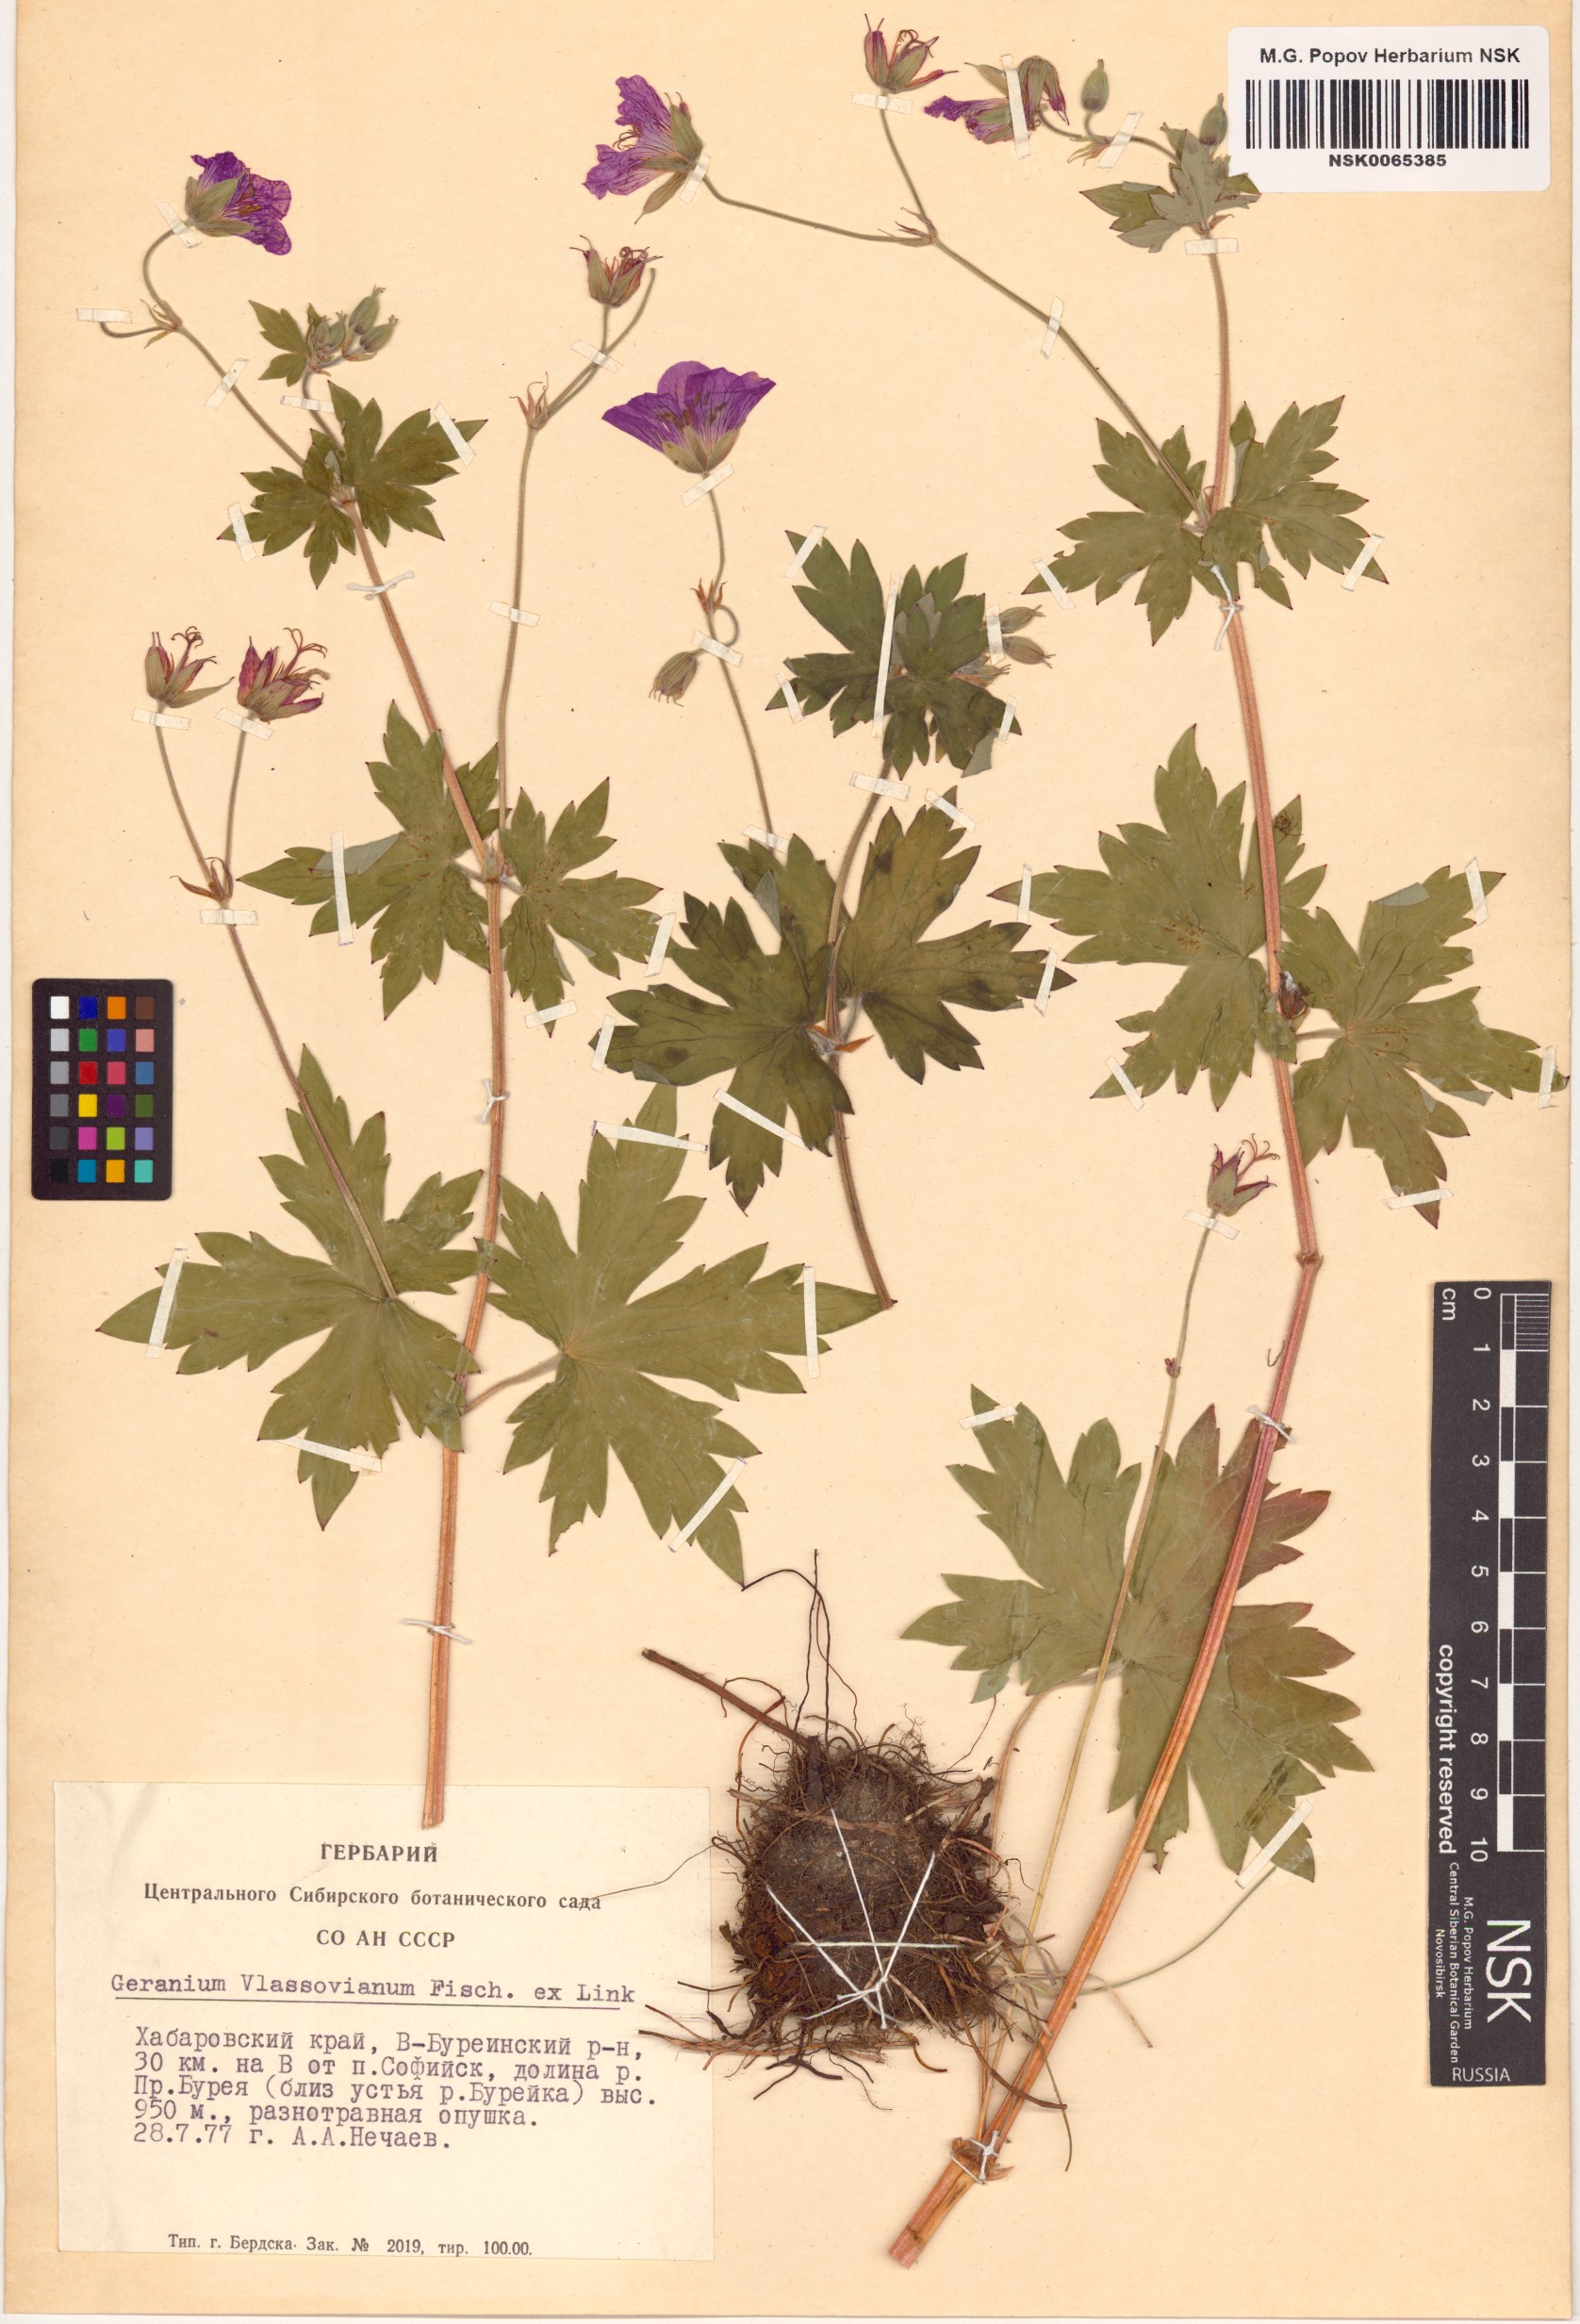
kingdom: Plantae
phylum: Tracheophyta
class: Magnoliopsida
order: Geraniales
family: Geraniaceae
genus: Geranium
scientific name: Geranium wlassovianum
